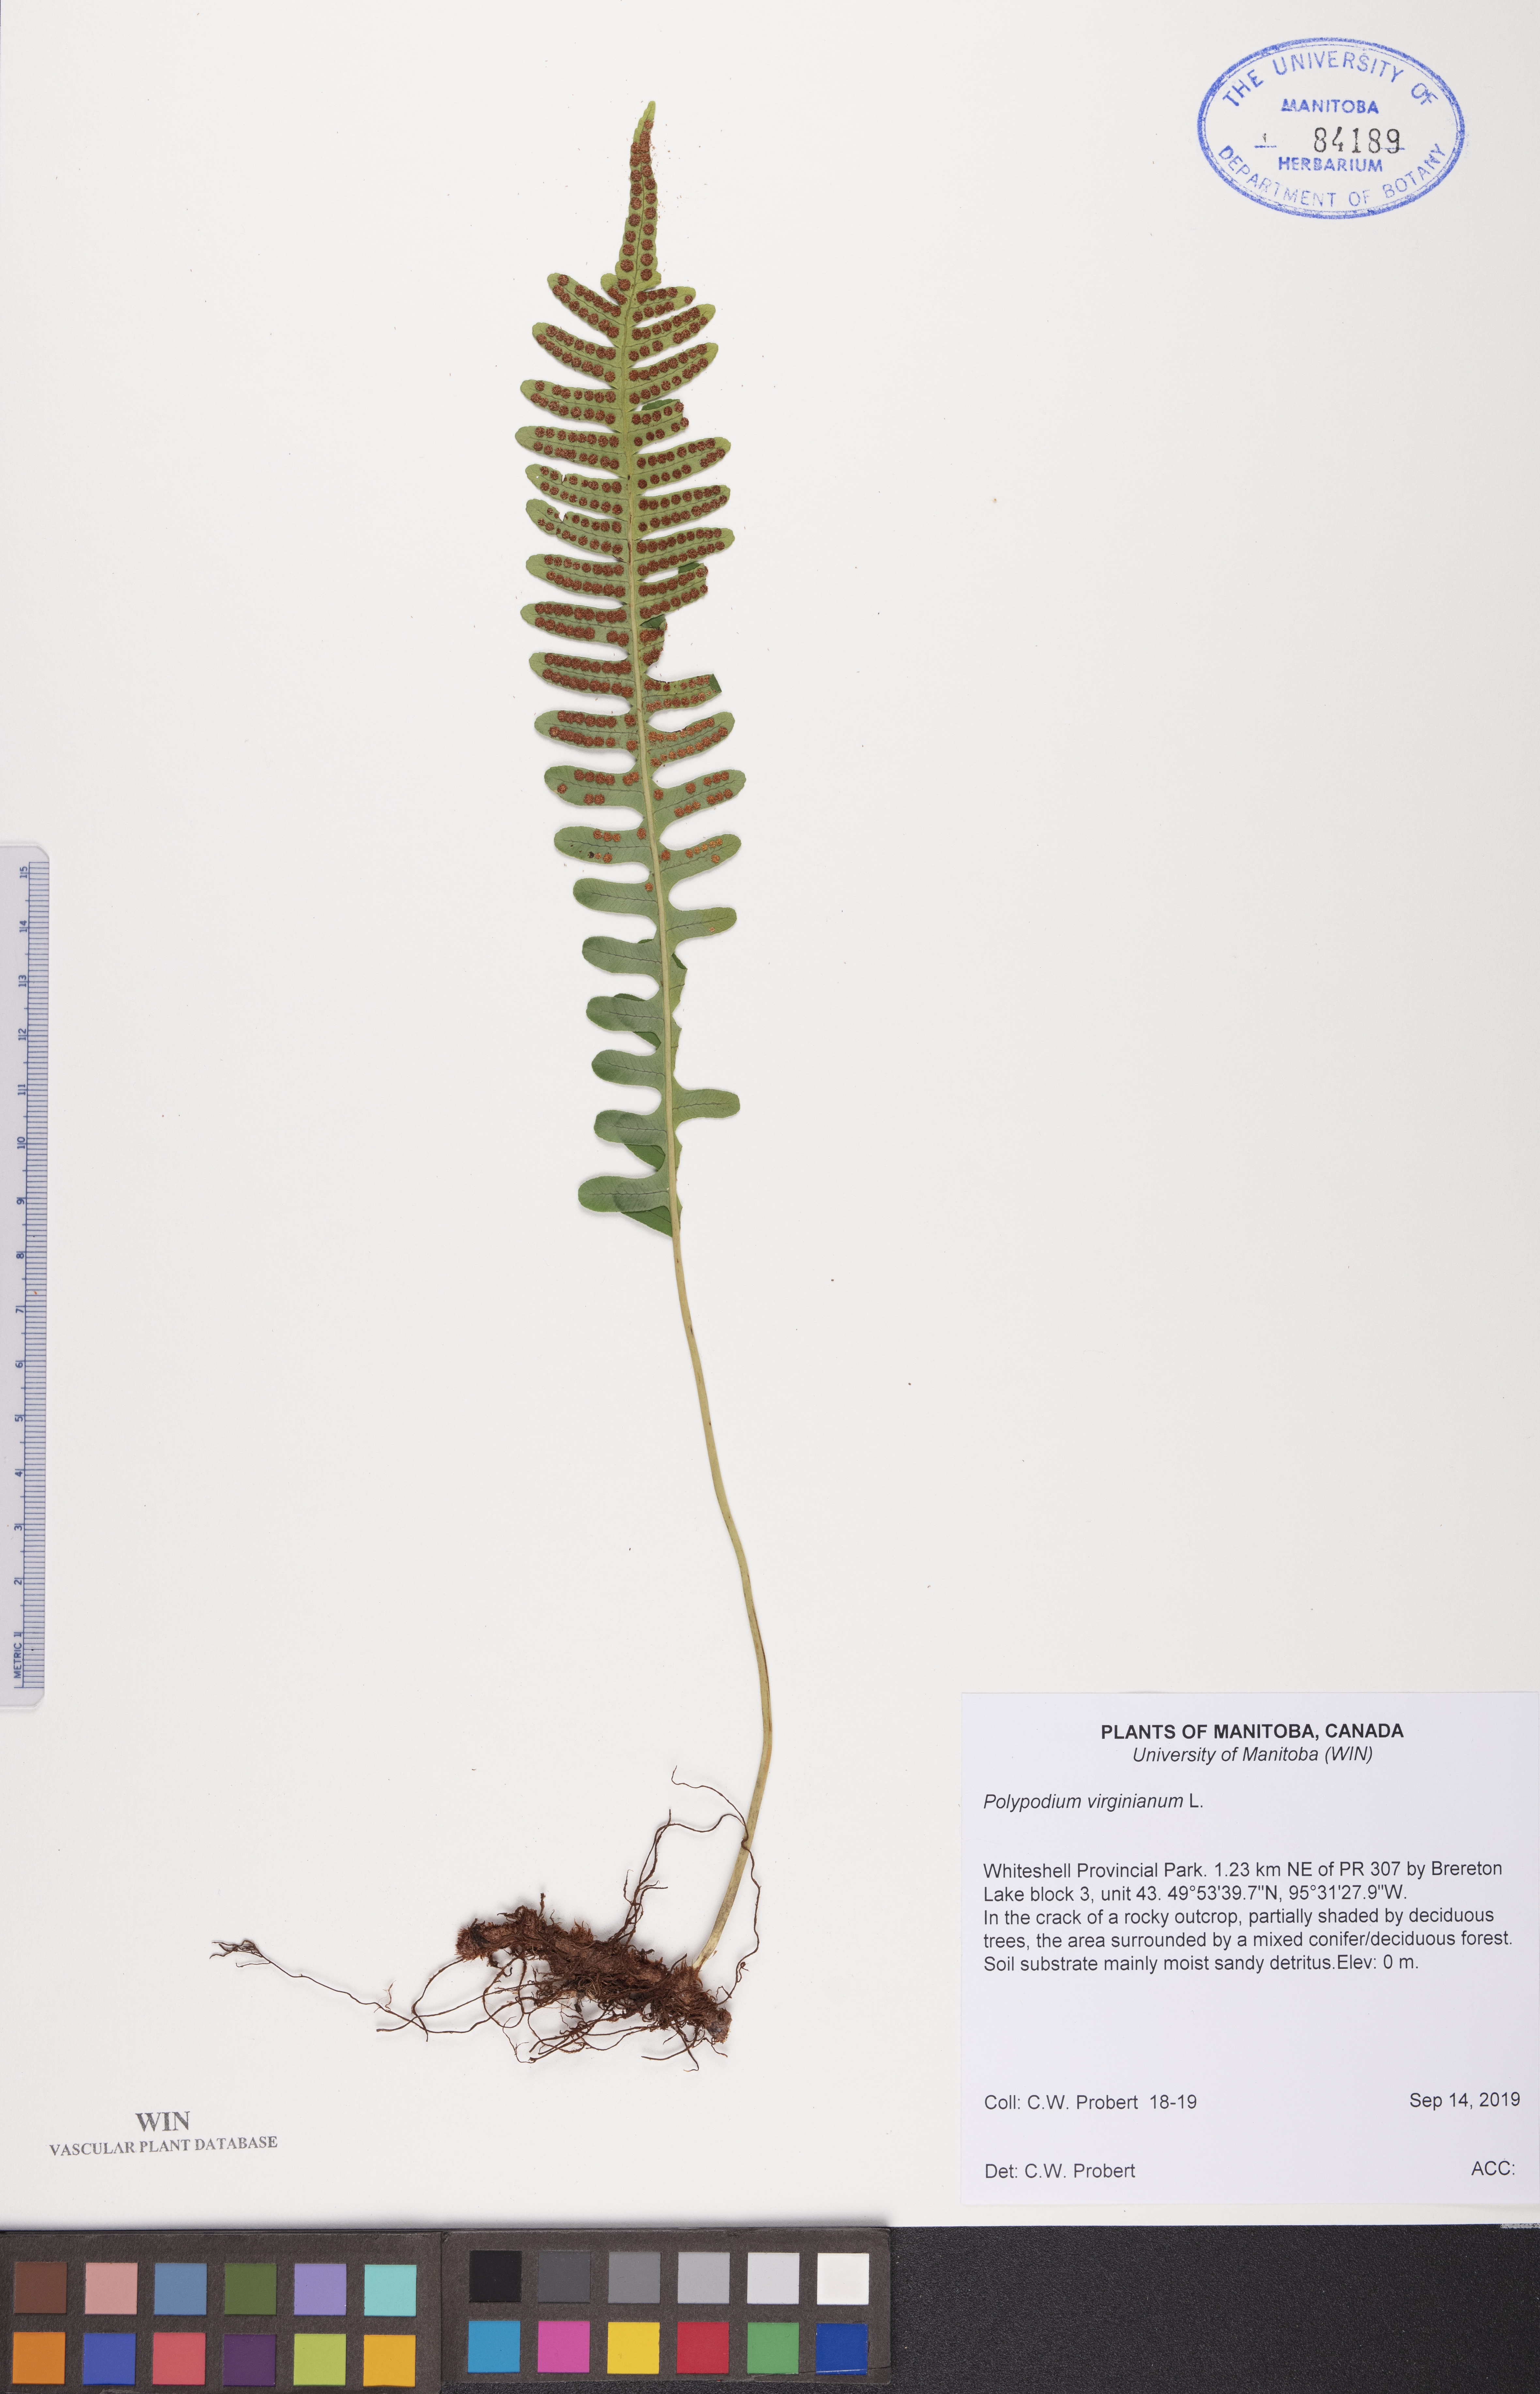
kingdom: Plantae
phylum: Tracheophyta
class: Polypodiopsida
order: Polypodiales
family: Polypodiaceae
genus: Polypodium
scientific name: Polypodium virginianum
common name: American wall fern
